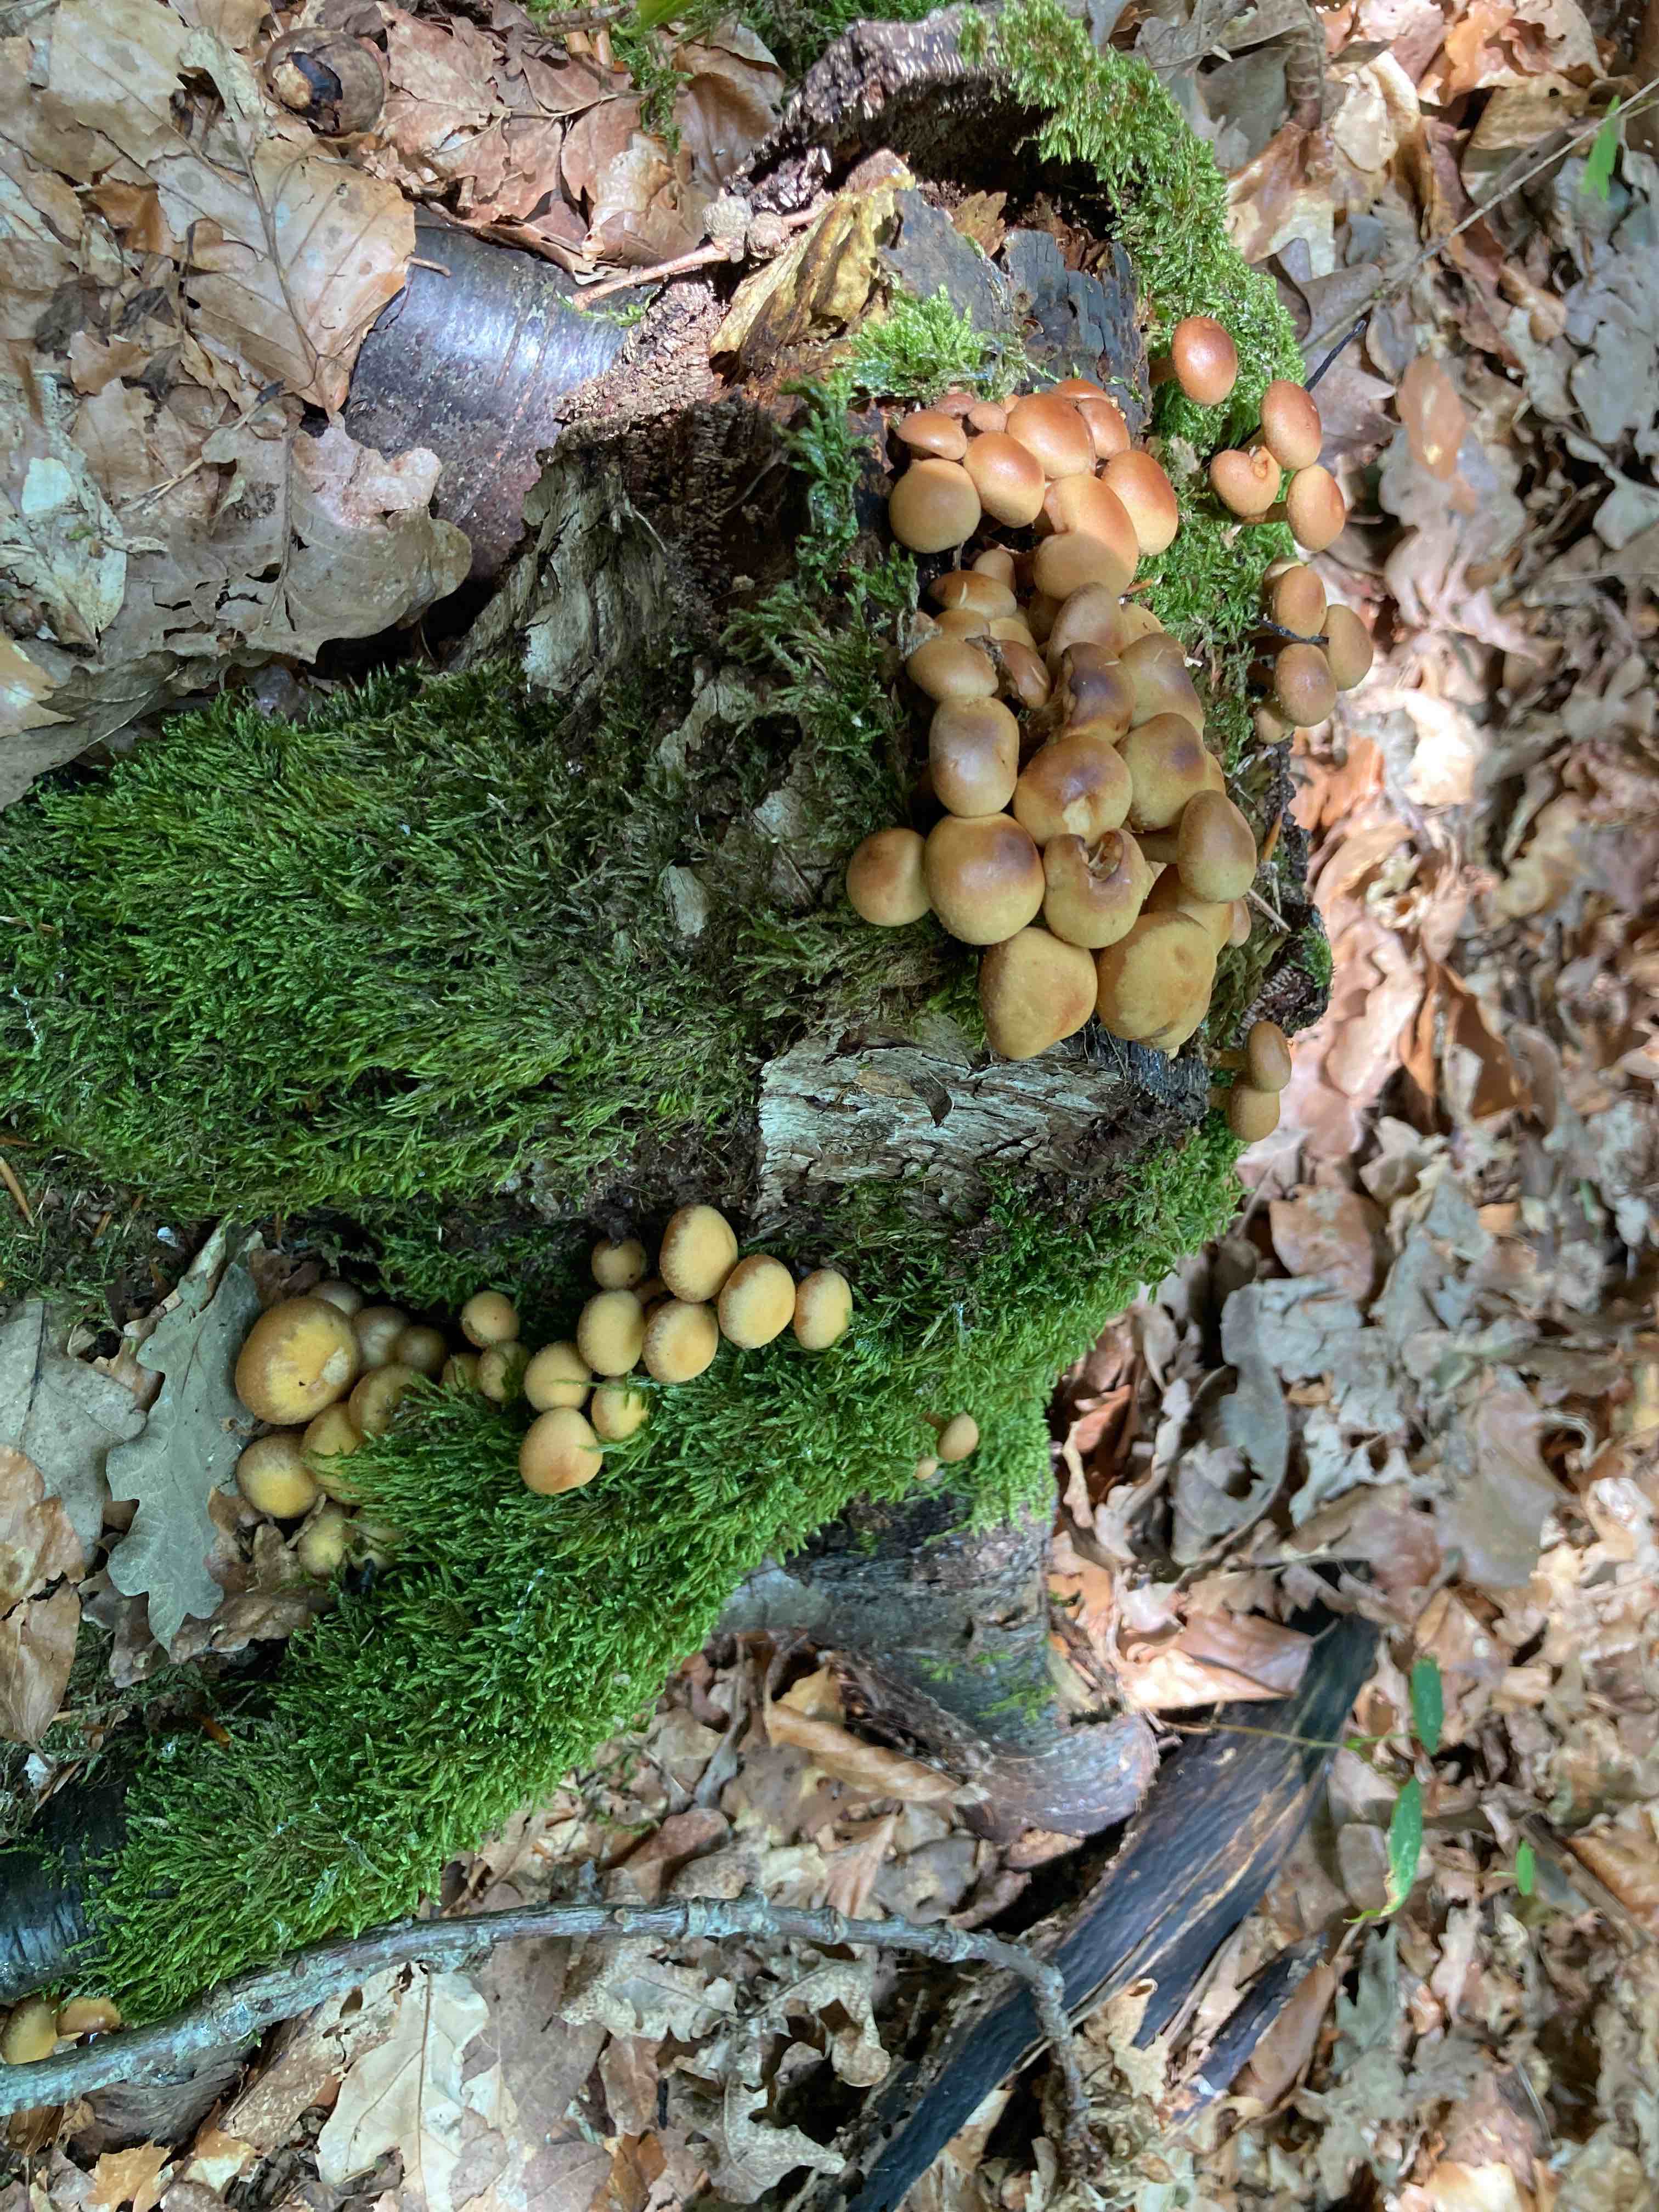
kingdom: Fungi
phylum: Basidiomycota
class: Agaricomycetes
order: Agaricales
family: Strophariaceae
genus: Kuehneromyces
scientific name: Kuehneromyces mutabilis
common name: foranderlig skælhat
